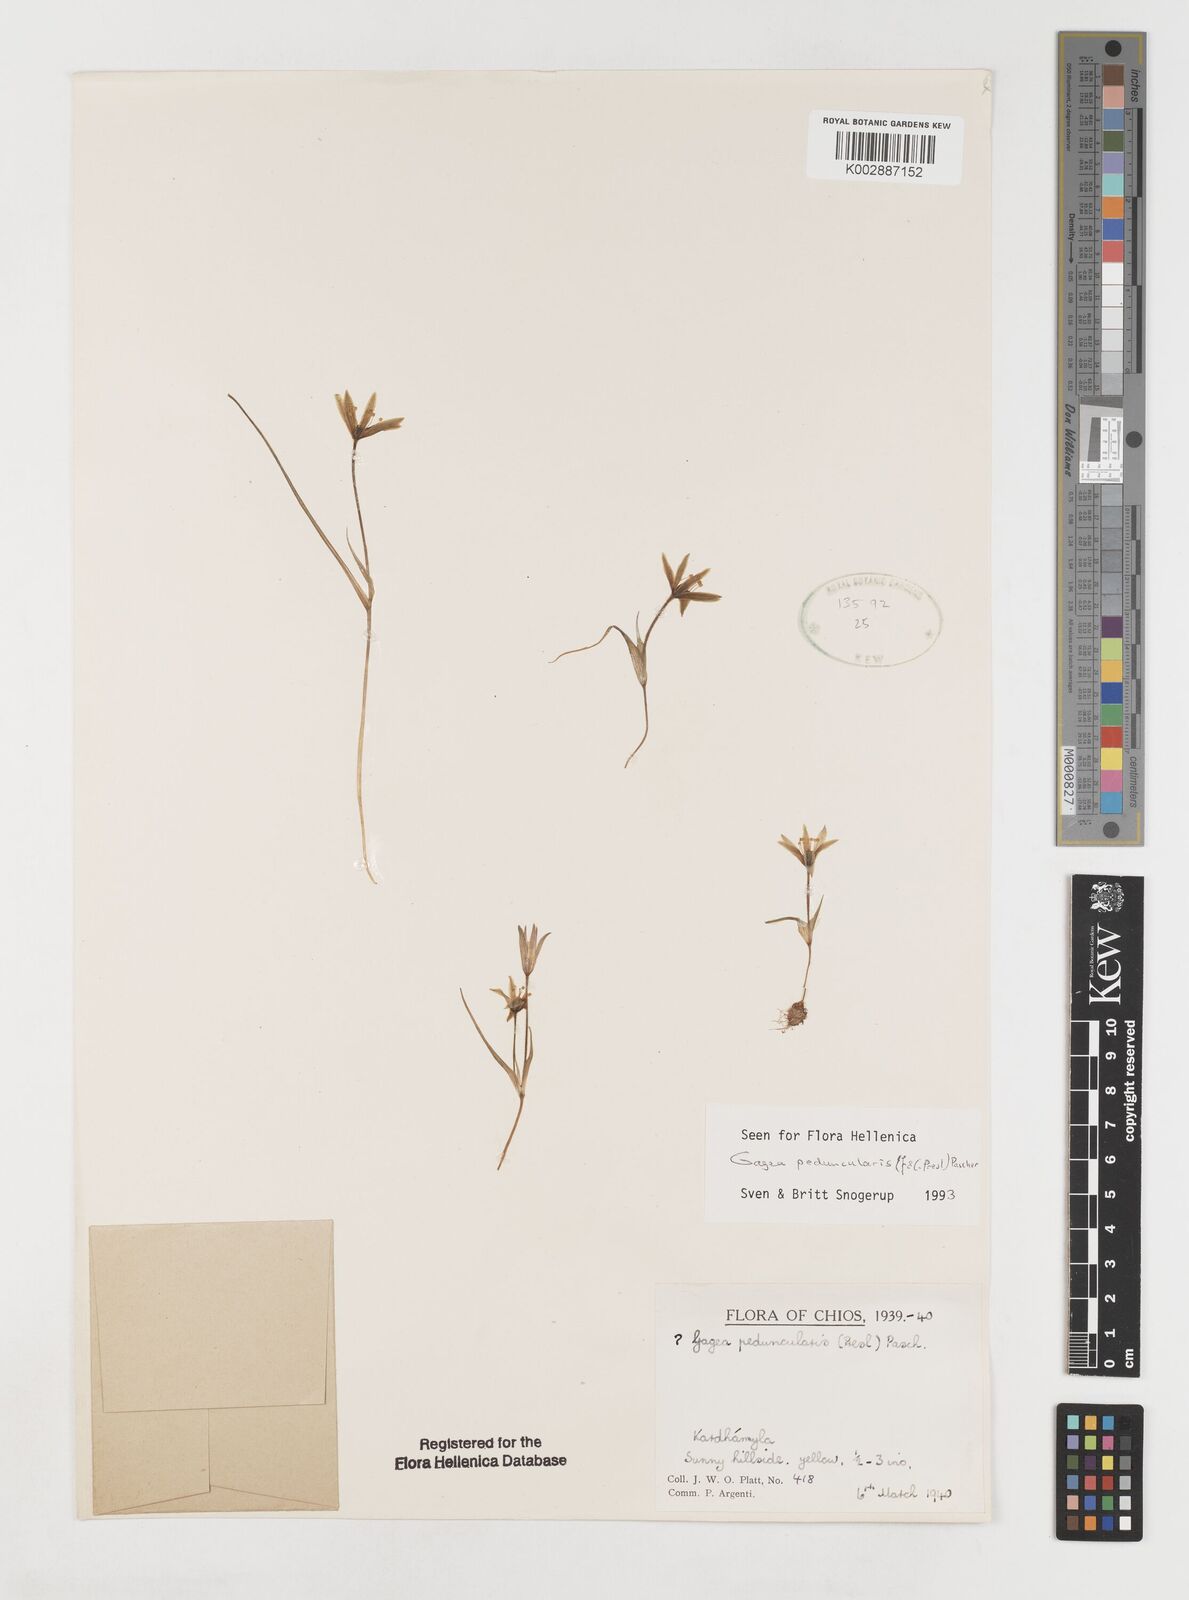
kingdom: Plantae
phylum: Tracheophyta
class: Liliopsida
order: Liliales
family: Liliaceae
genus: Gagea
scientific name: Gagea peduncularis
